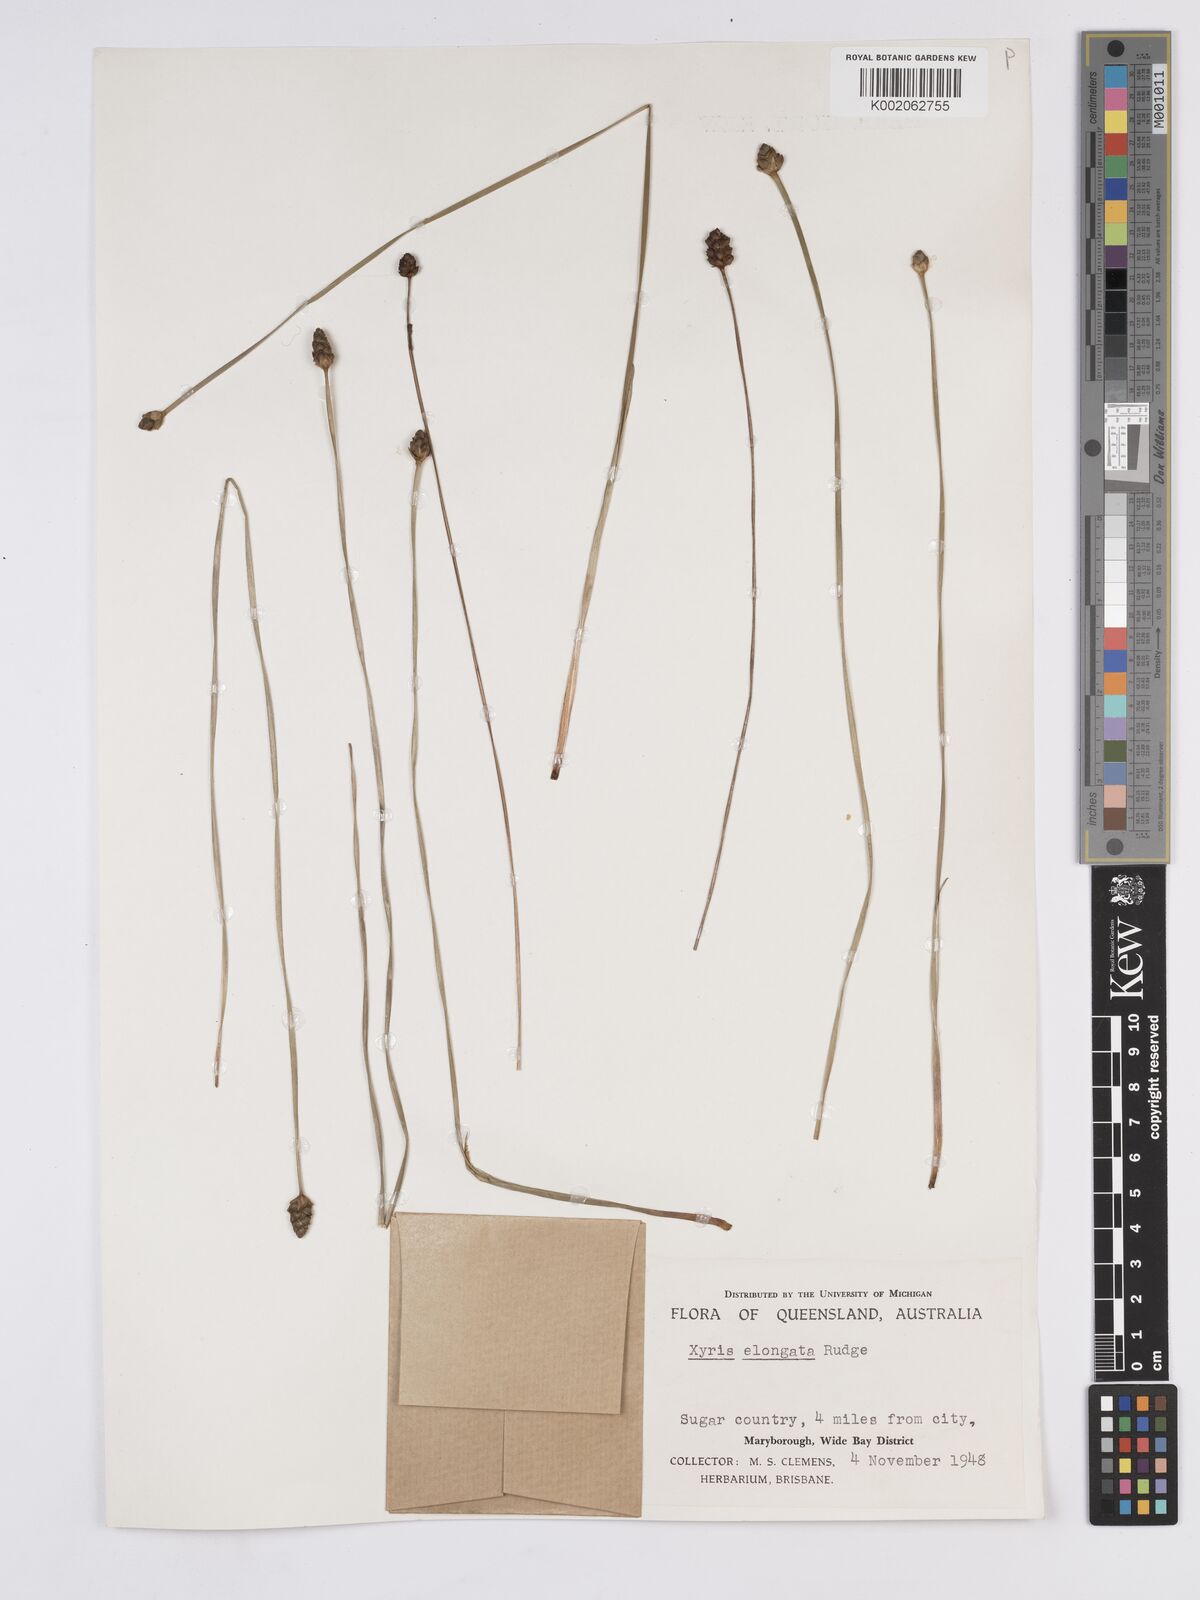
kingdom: Plantae
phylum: Tracheophyta
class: Liliopsida
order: Poales
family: Xyridaceae
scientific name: Xyridaceae
